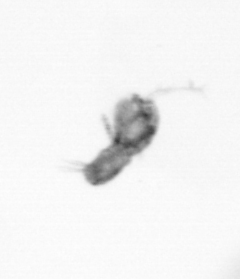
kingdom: Animalia
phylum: Arthropoda
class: Copepoda
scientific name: Copepoda
